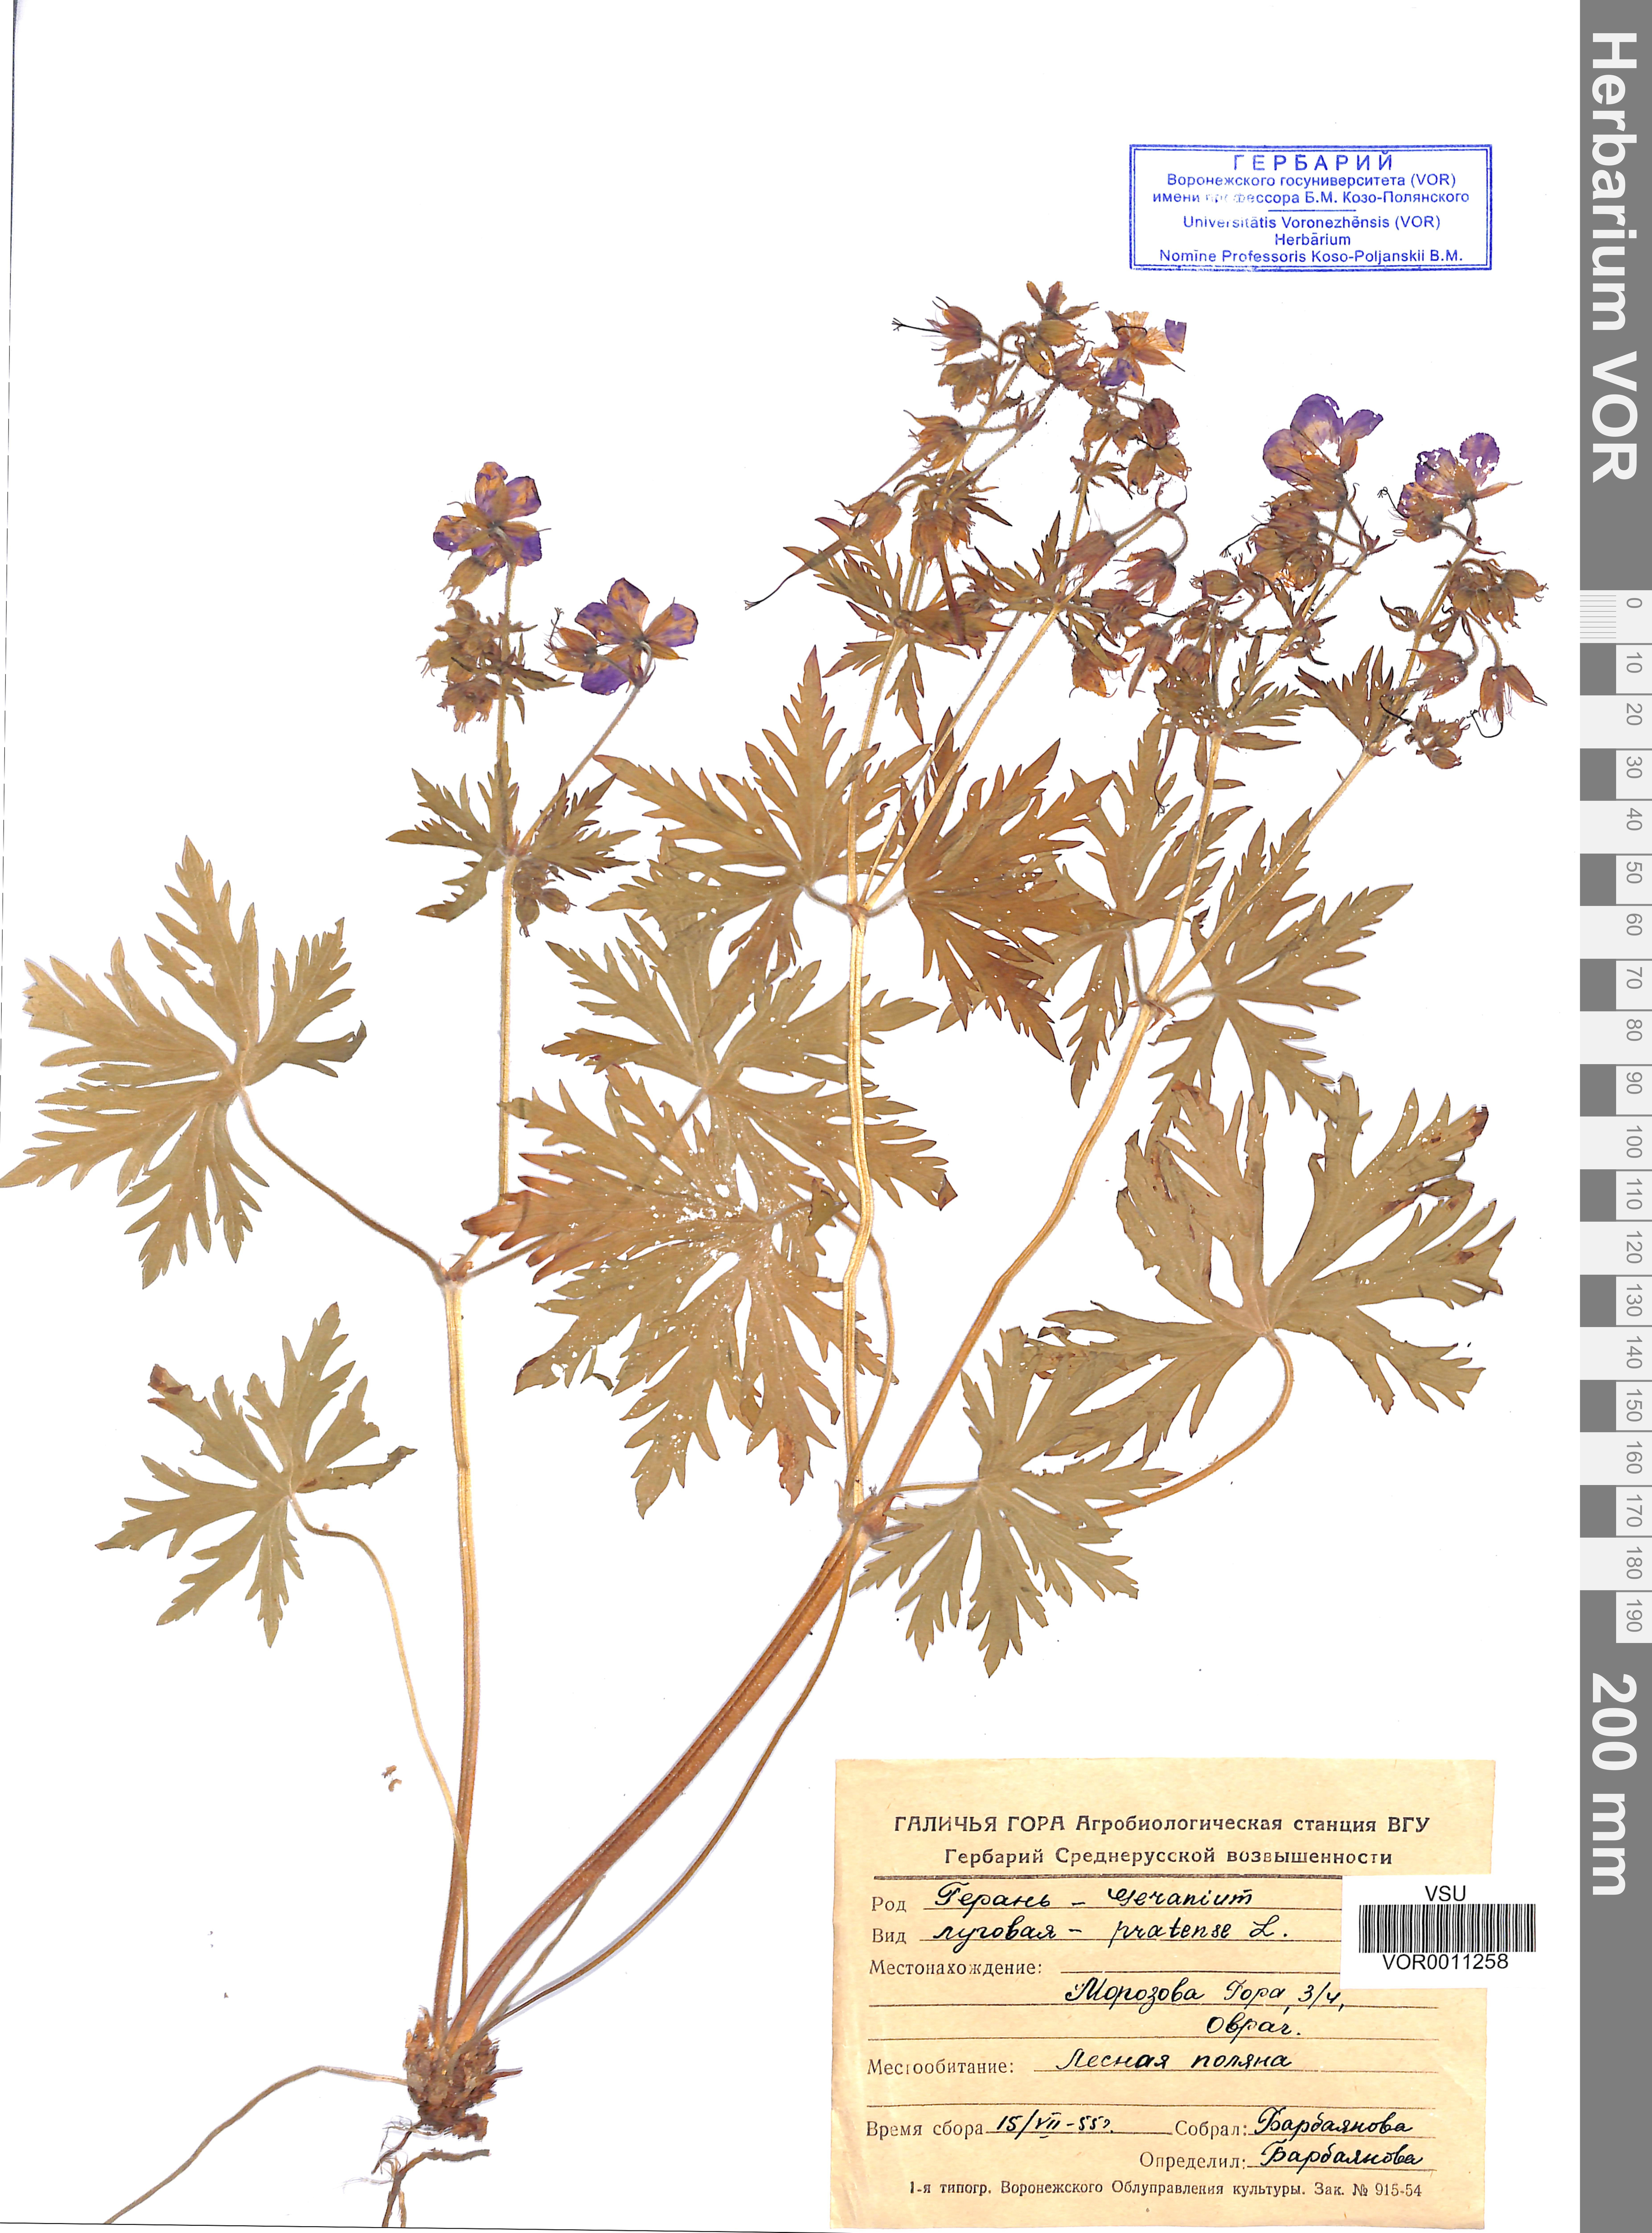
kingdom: Plantae
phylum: Tracheophyta
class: Magnoliopsida
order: Geraniales
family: Geraniaceae
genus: Geranium
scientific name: Geranium pratense
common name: Meadow crane's-bill
